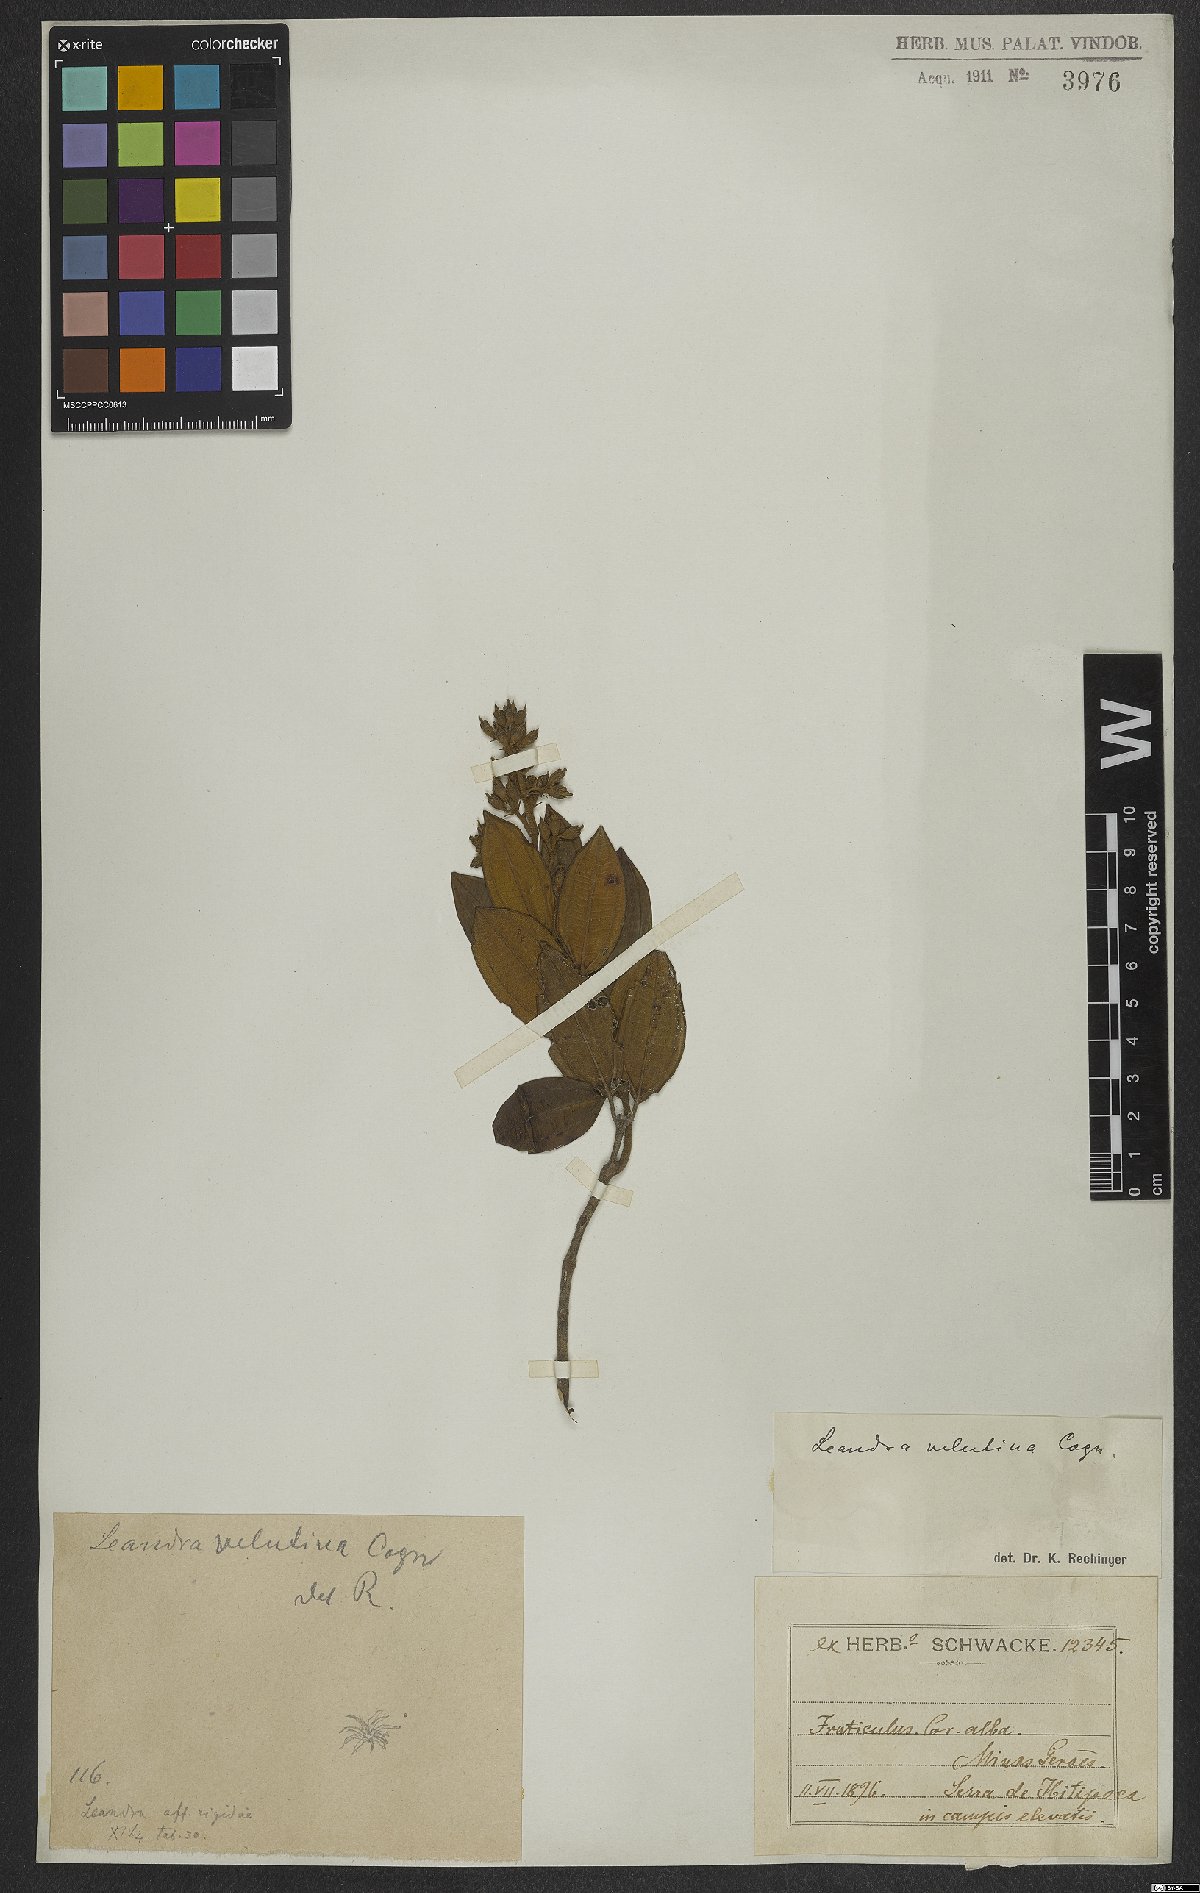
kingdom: Plantae
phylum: Tracheophyta
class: Magnoliopsida
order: Myrtales
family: Melastomataceae
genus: Miconia
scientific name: Miconia leavelutina
